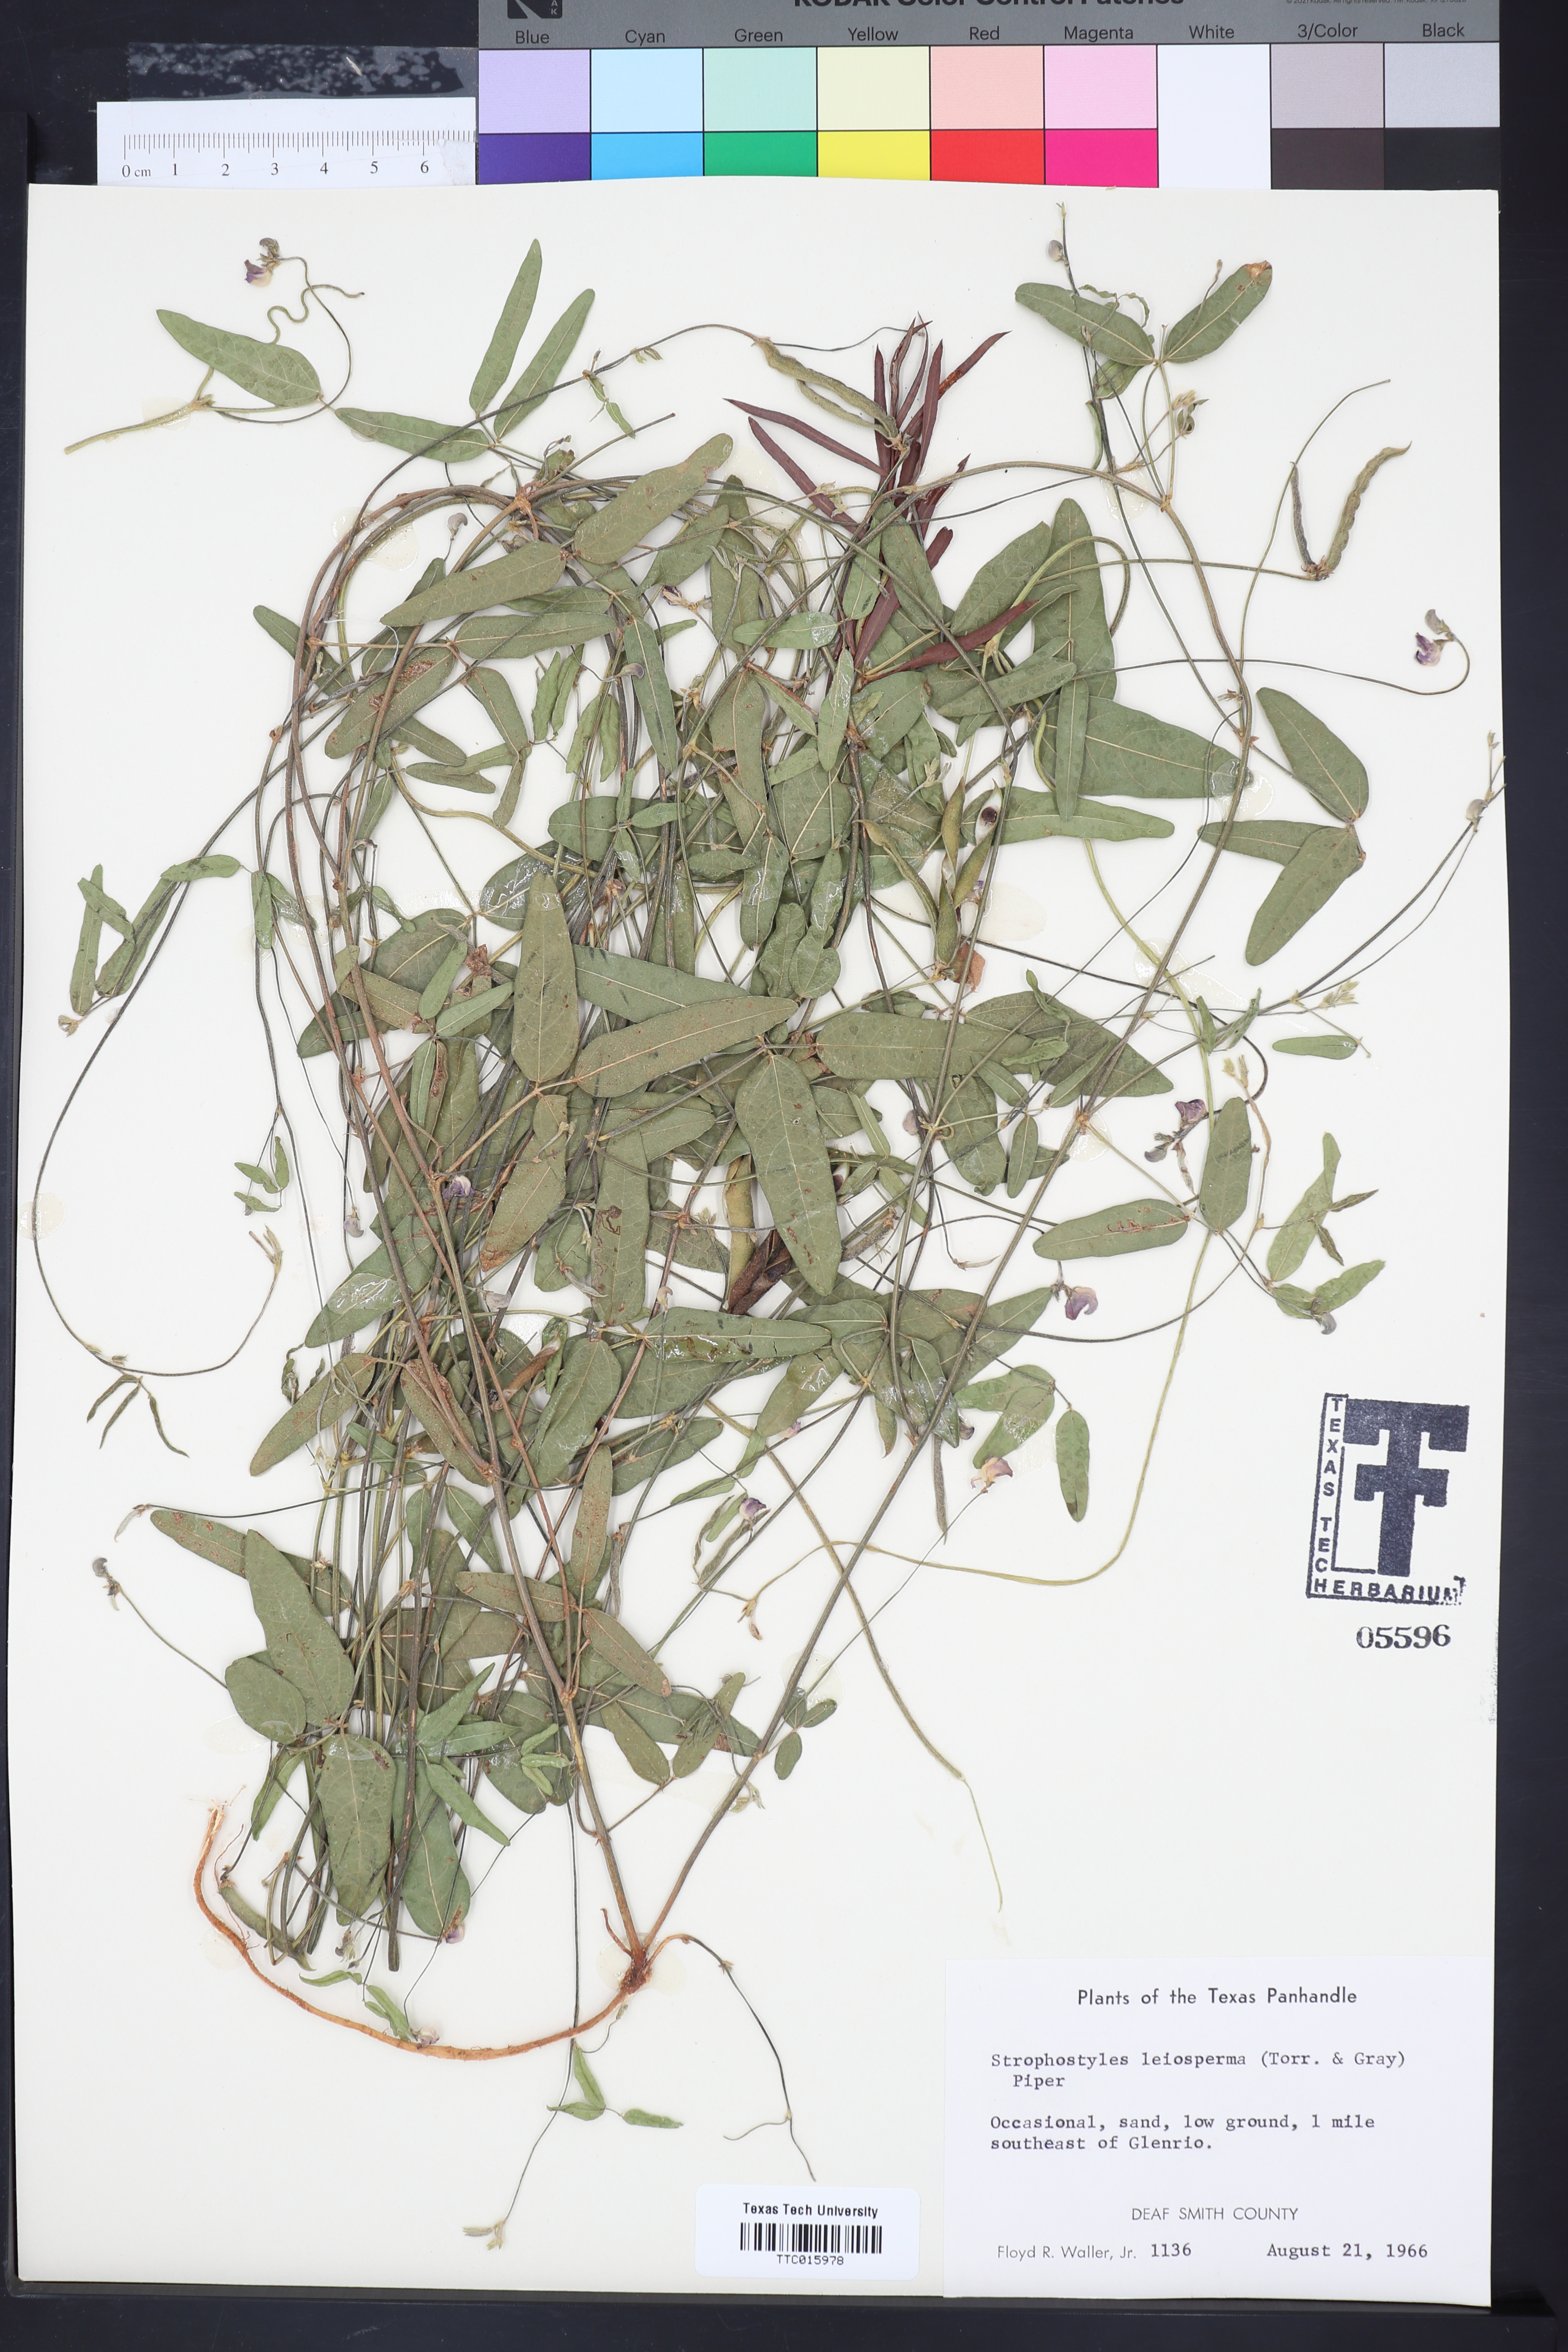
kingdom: Plantae
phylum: Tracheophyta
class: Magnoliopsida
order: Fabales
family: Fabaceae
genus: Strophostyles
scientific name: Strophostyles leiosperma
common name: Smooth-seed wild bean
